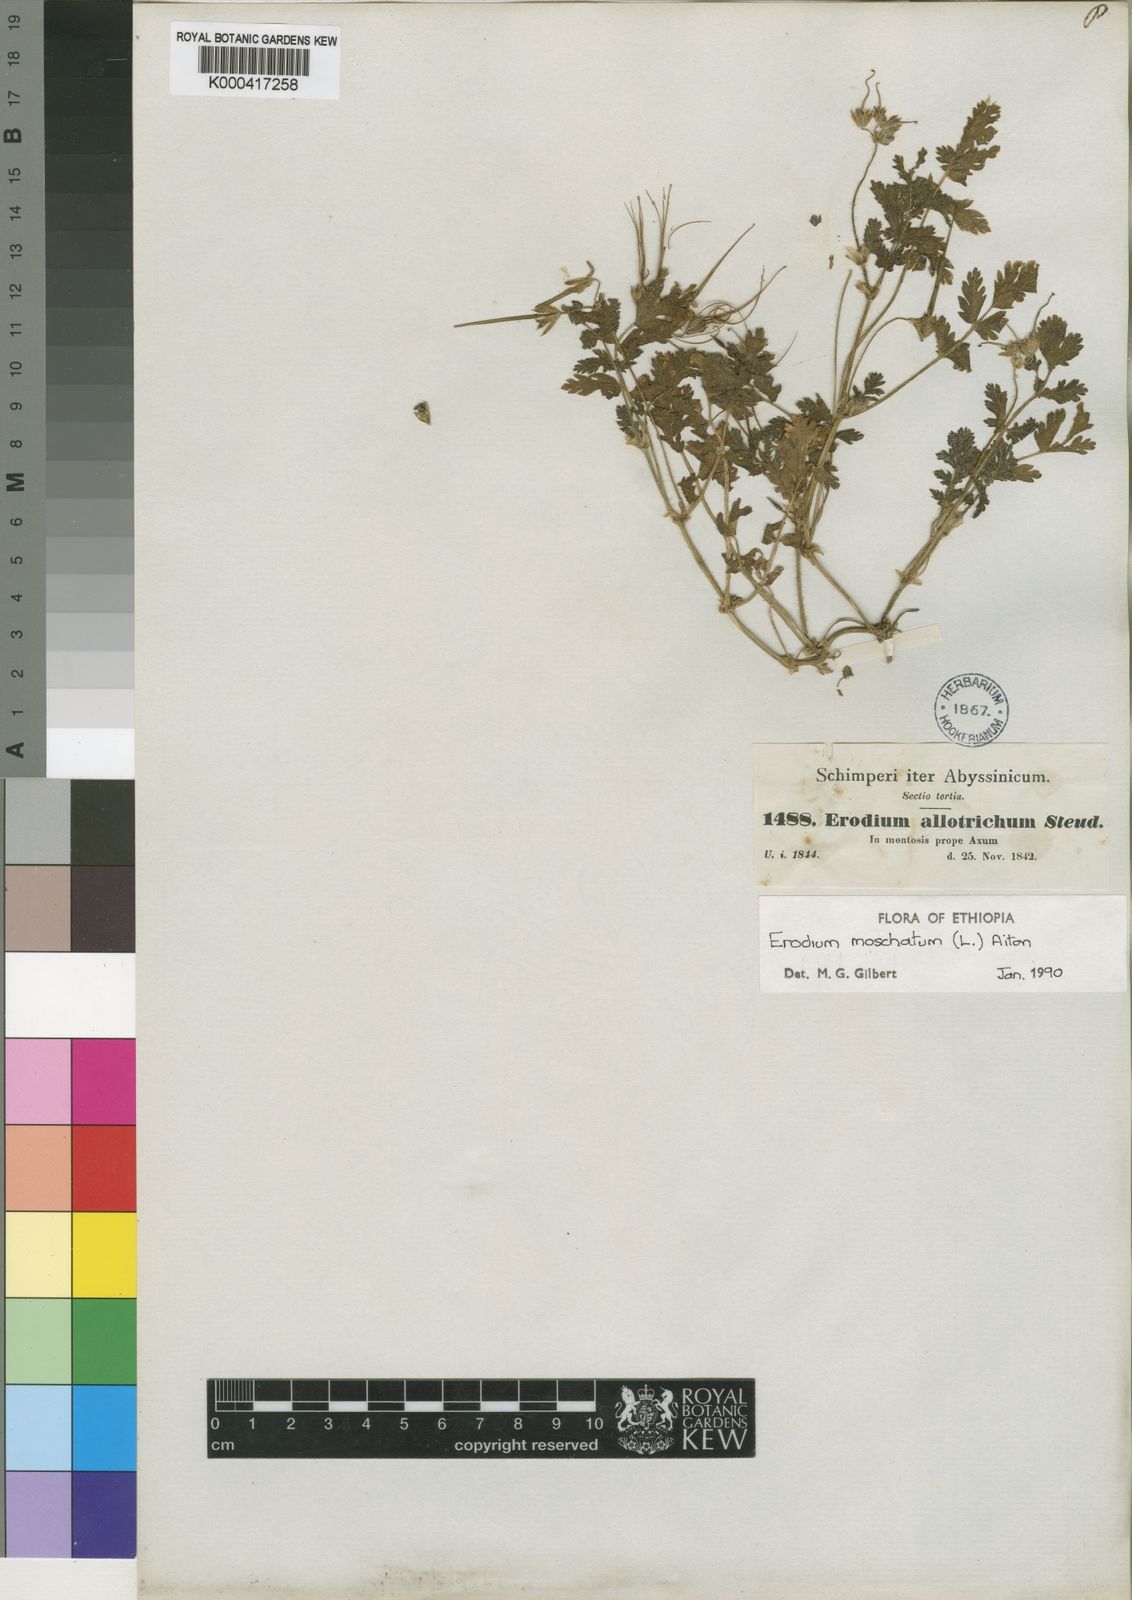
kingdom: Plantae
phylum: Tracheophyta
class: Magnoliopsida
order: Geraniales
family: Geraniaceae
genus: Erodium
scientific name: Erodium
